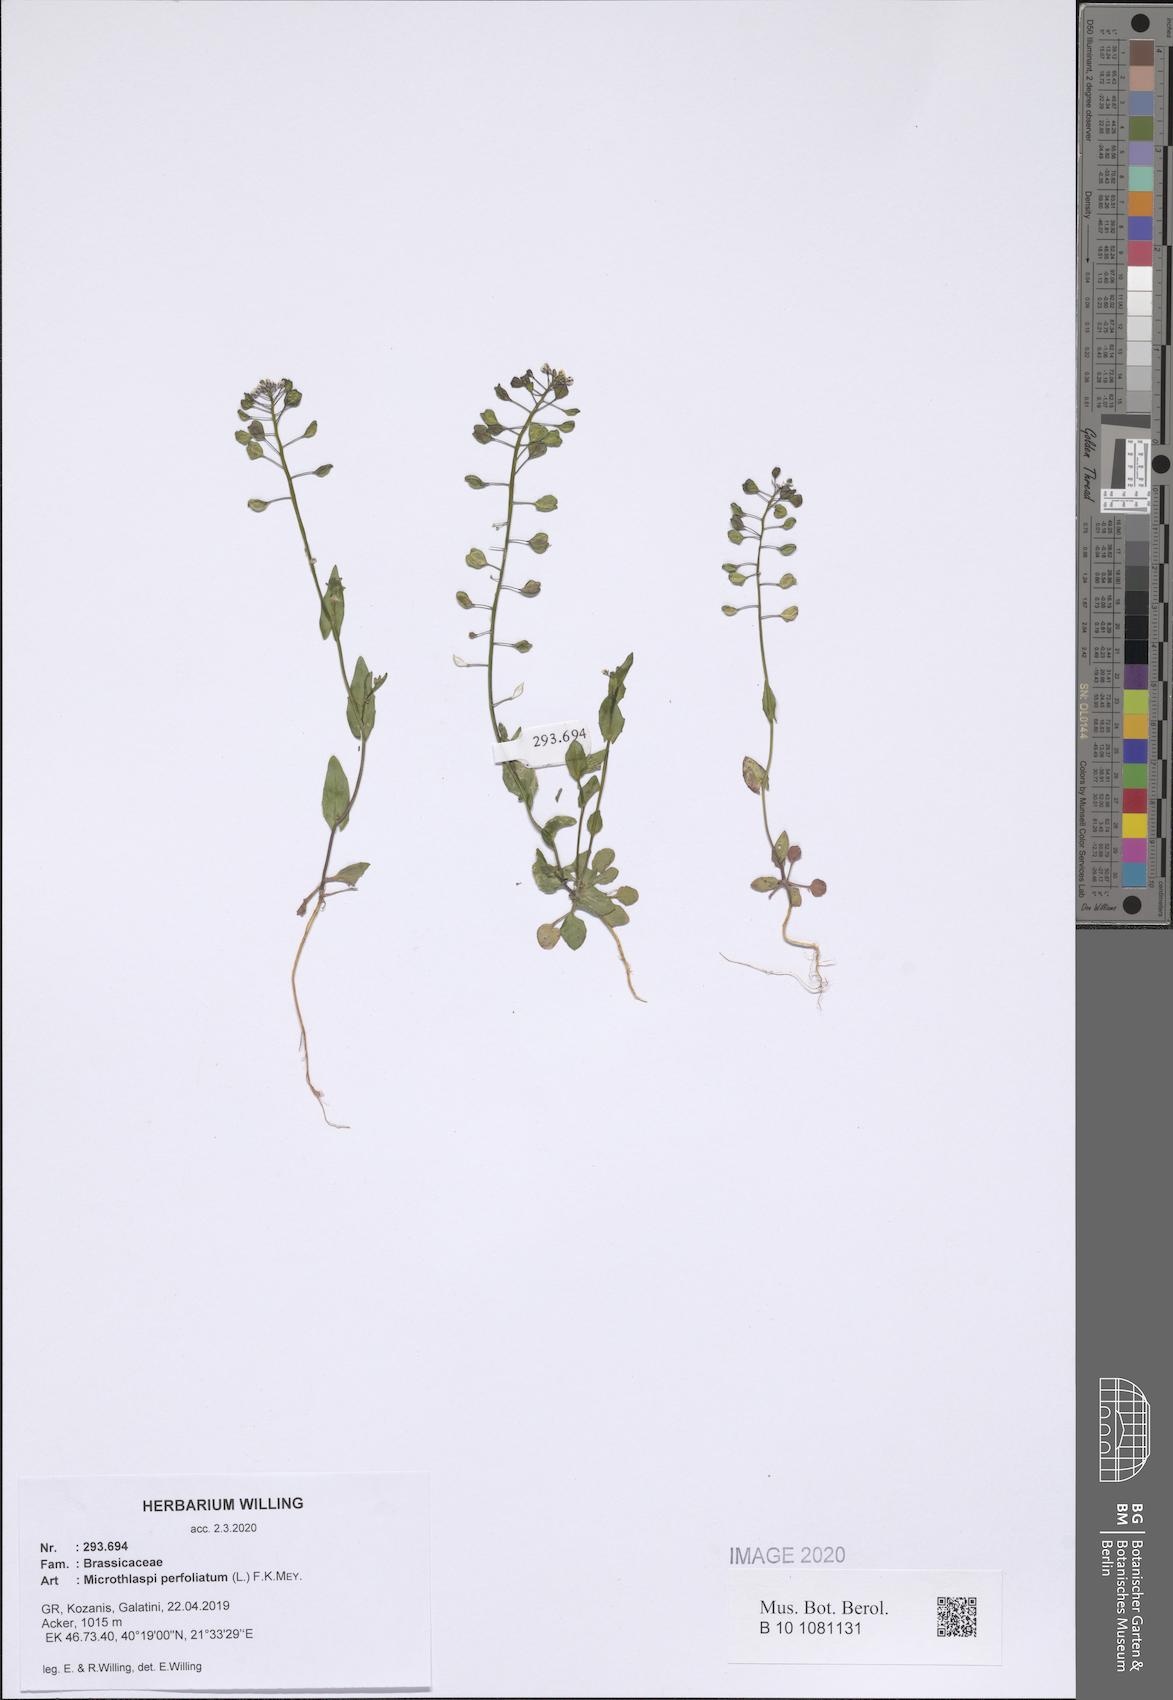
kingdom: Plantae
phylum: Tracheophyta
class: Magnoliopsida
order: Brassicales
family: Brassicaceae
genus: Noccaea
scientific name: Noccaea perfoliata
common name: Perfoliate pennycress
